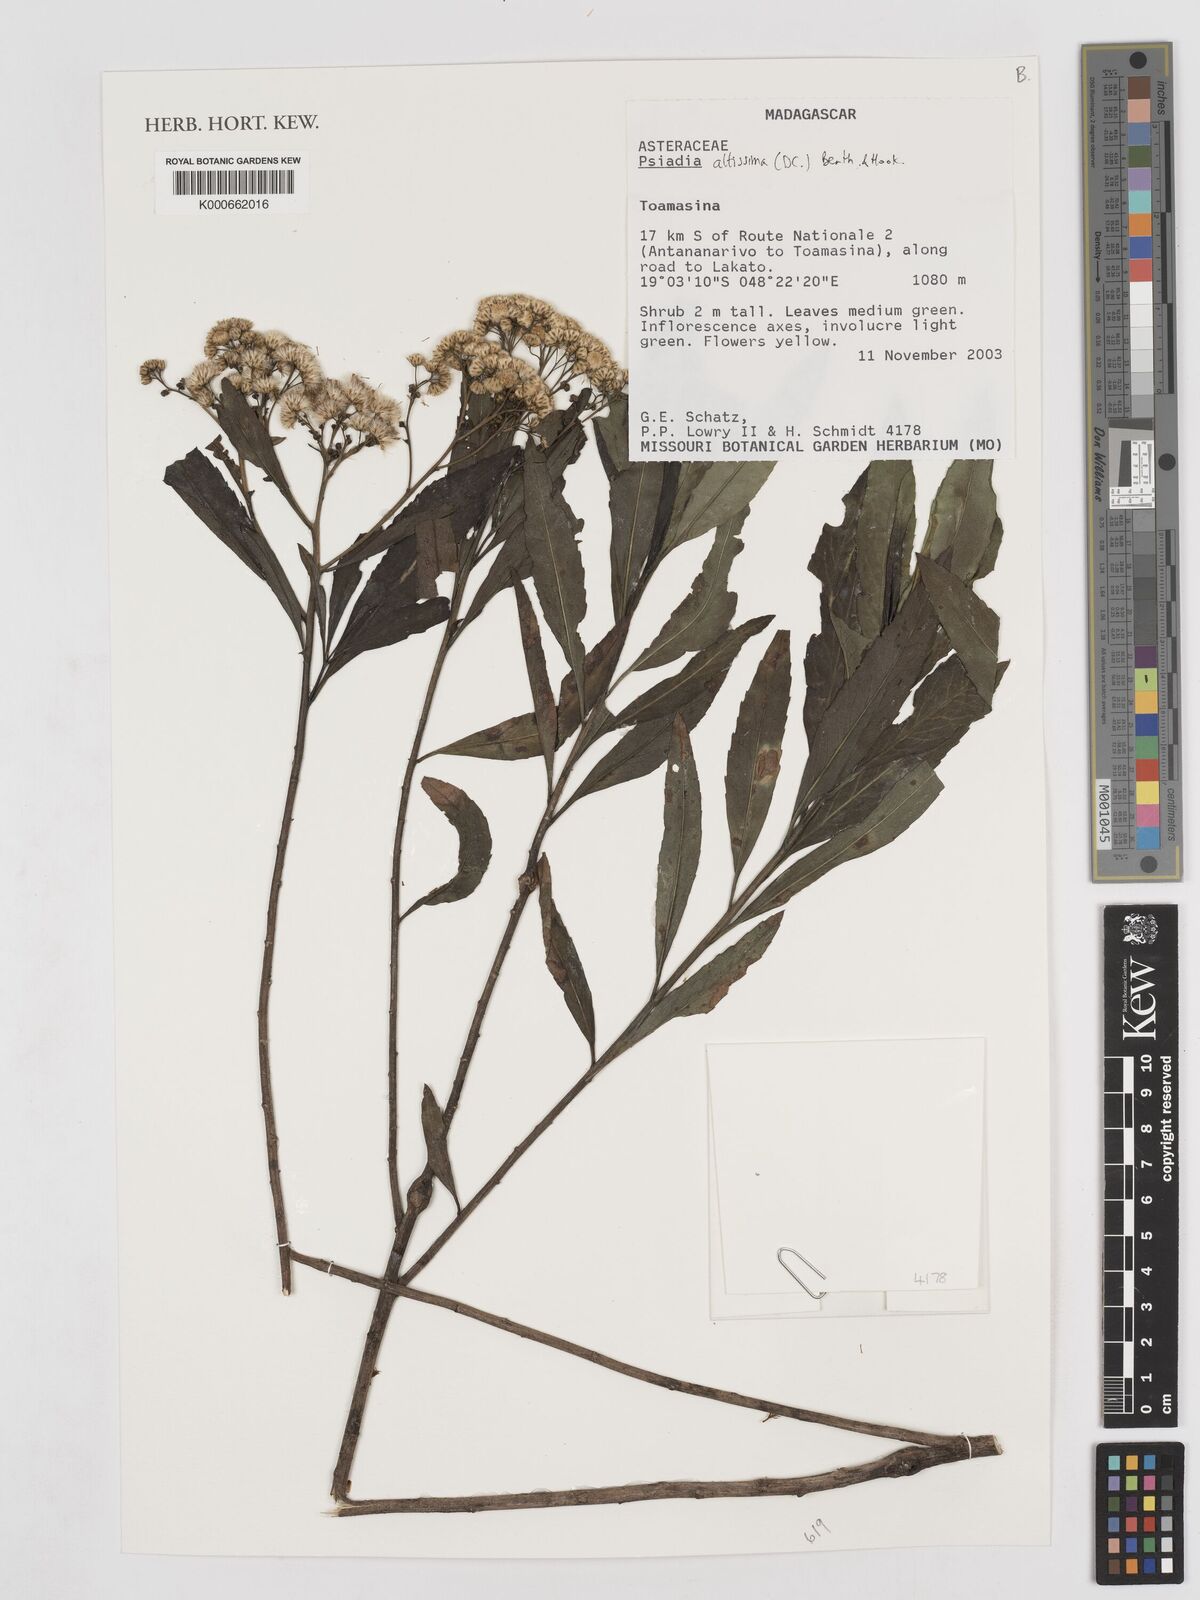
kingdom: Plantae
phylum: Tracheophyta
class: Magnoliopsida
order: Asterales
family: Asteraceae
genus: Psiadia
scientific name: Psiadia
